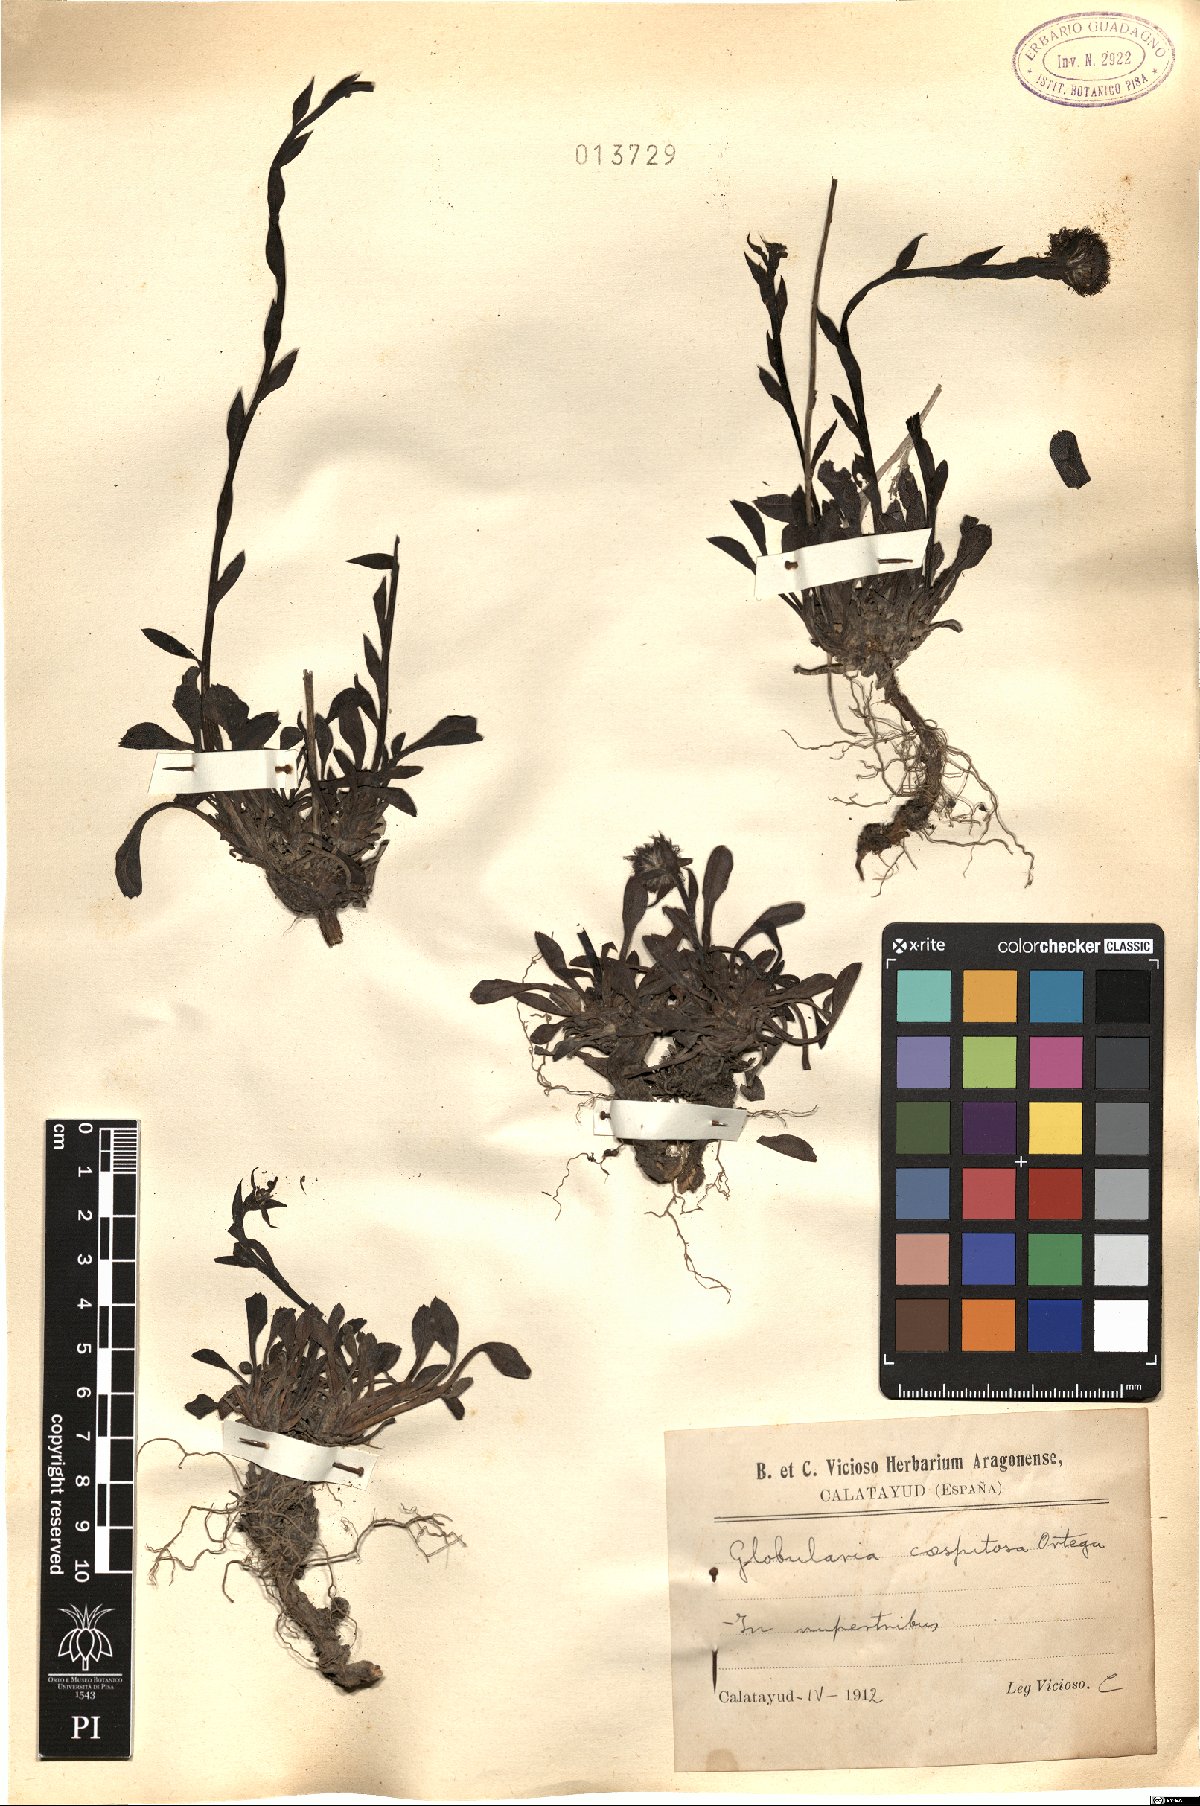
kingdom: Plantae
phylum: Tracheophyta
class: Magnoliopsida
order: Lamiales
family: Plantaginaceae
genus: Globularia
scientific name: Globularia bisnagarica
